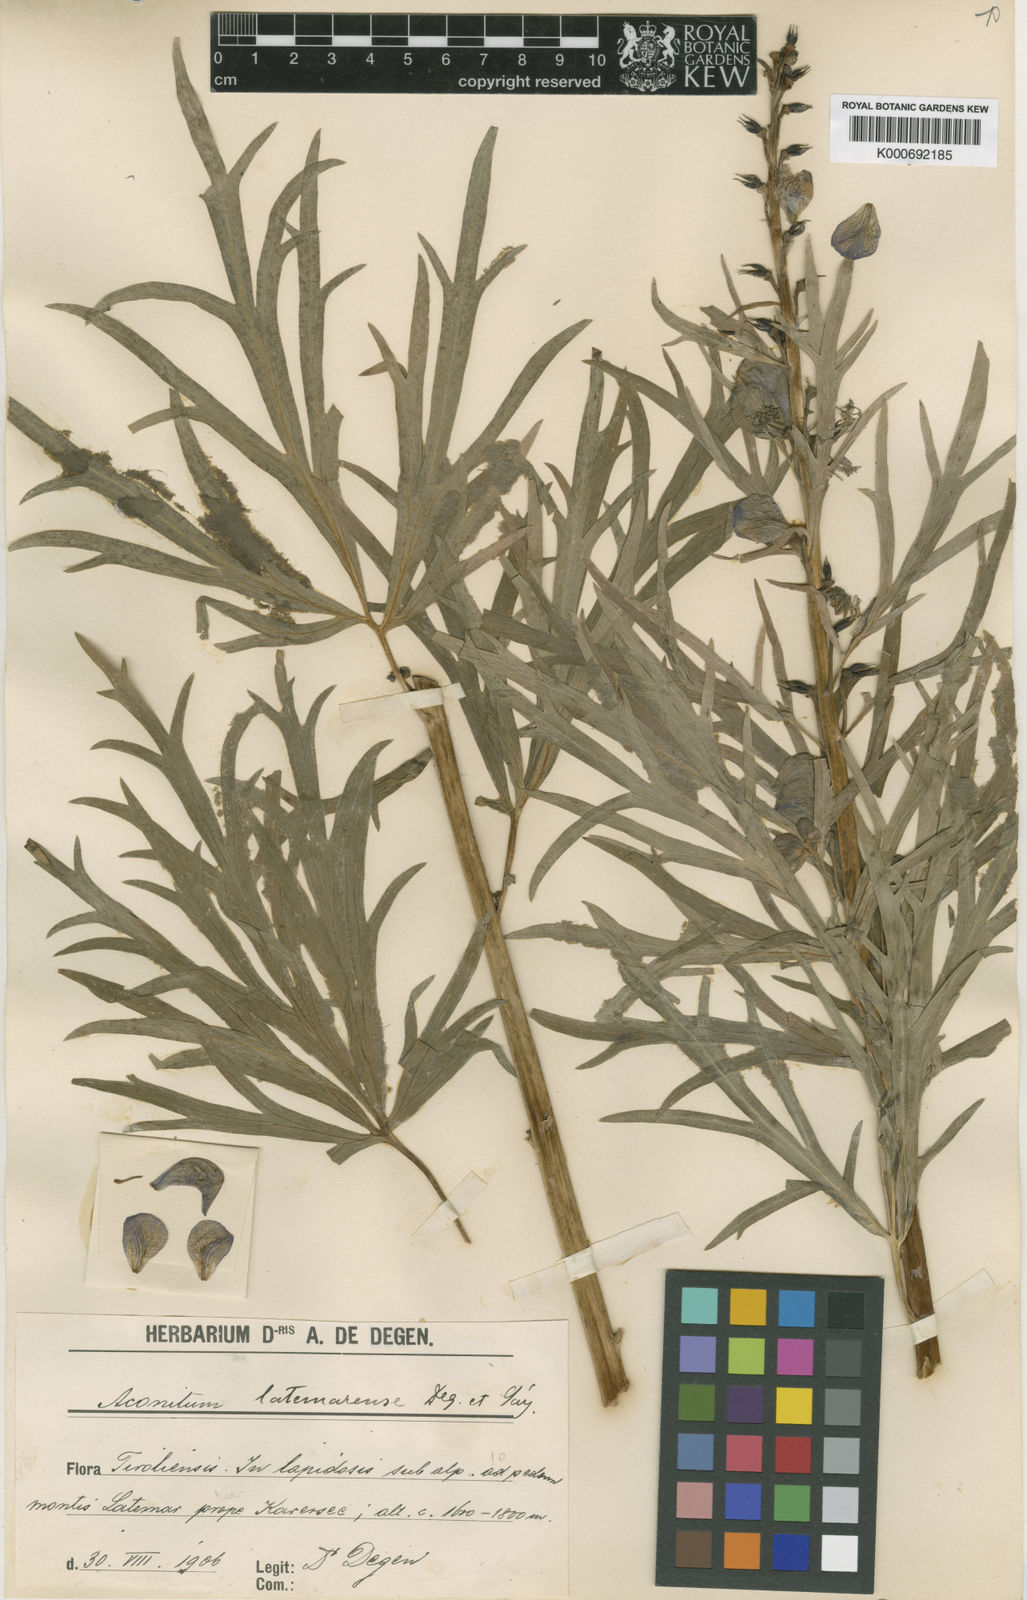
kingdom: Plantae
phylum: Tracheophyta
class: Magnoliopsida
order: Ranunculales
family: Ranunculaceae
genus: Aconitum
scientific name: Aconitum tauricum
